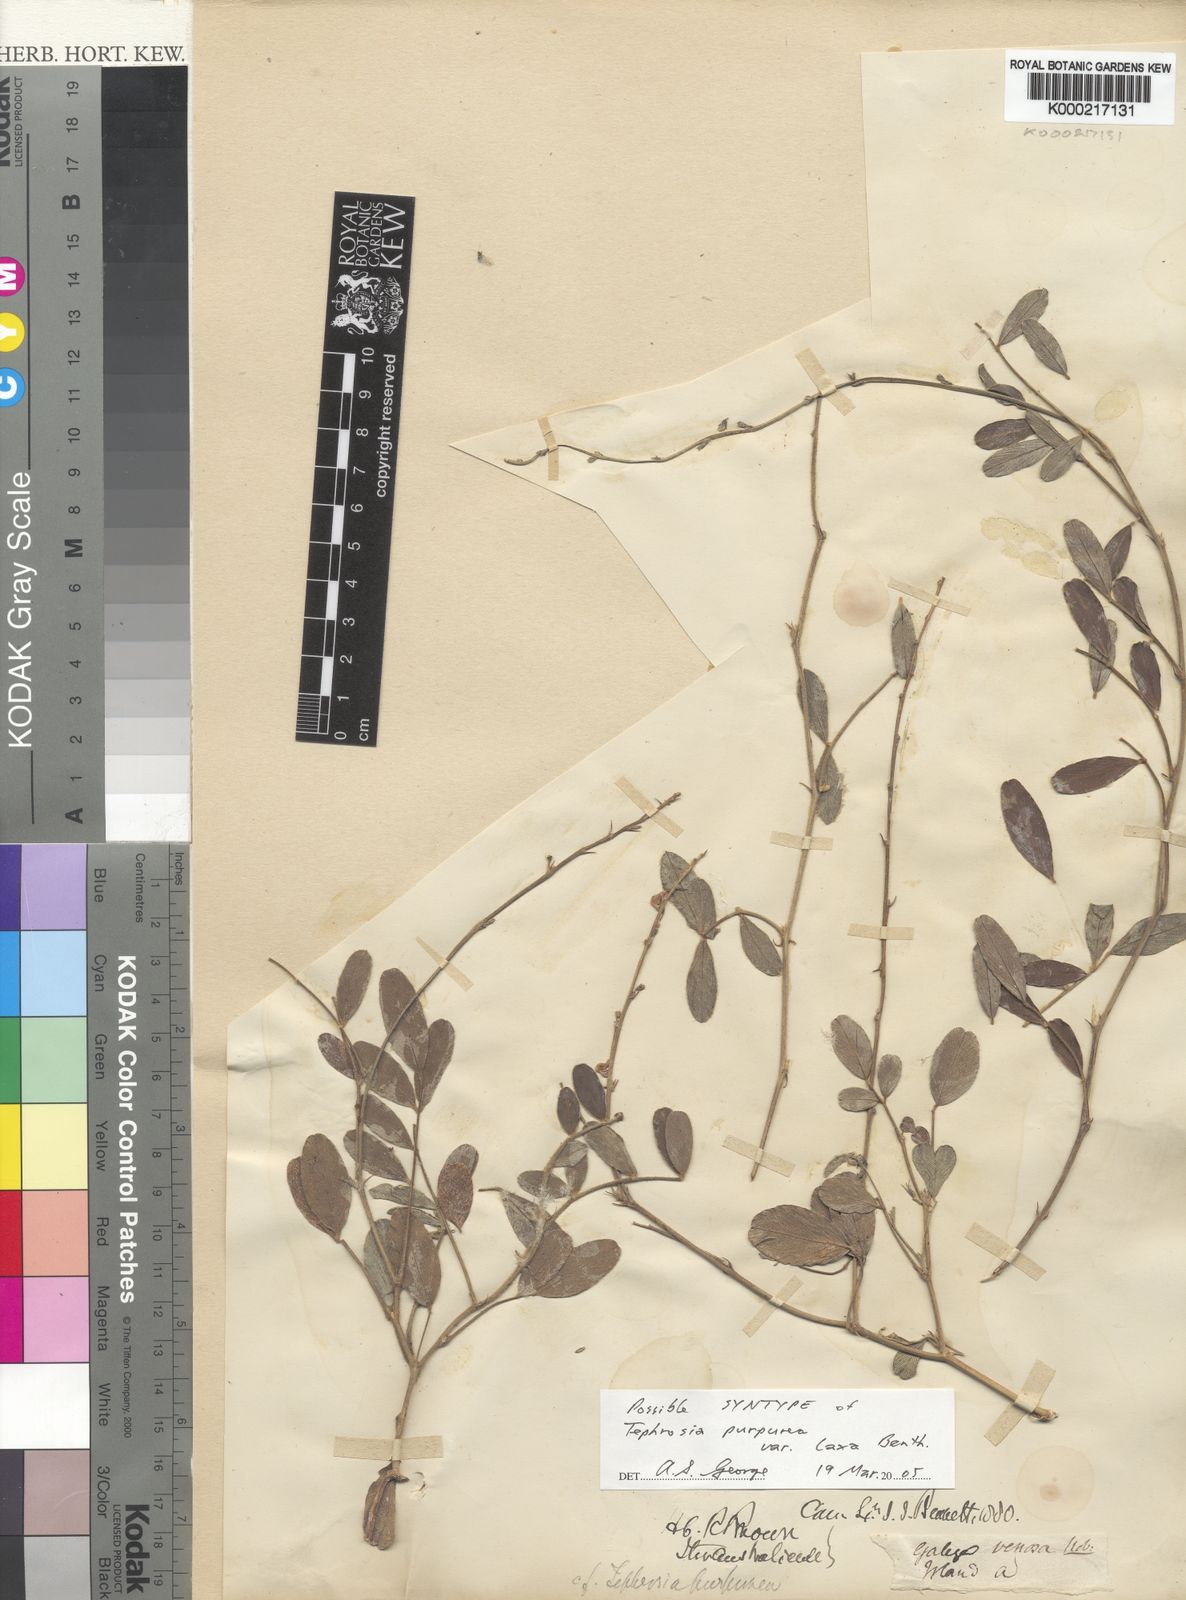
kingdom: Plantae
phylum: Tracheophyta
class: Magnoliopsida
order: Fabales
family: Fabaceae
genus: Tephrosia
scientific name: Tephrosia purpurea
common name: Fishpoison
